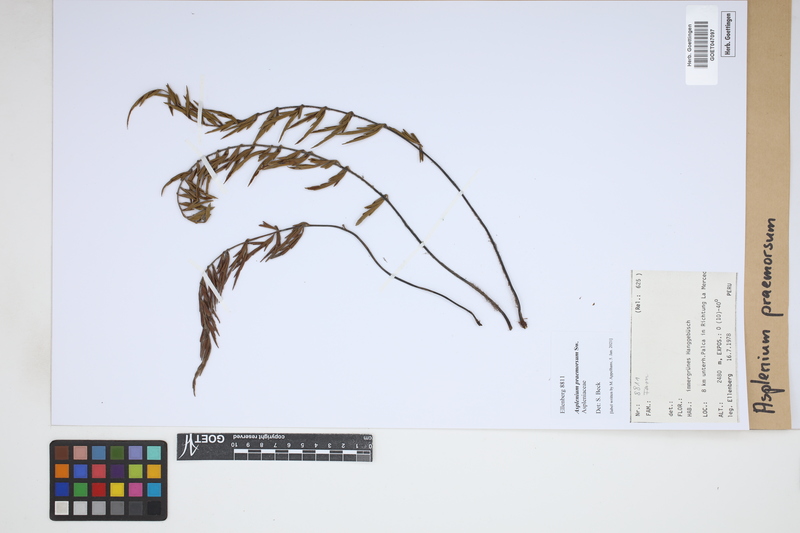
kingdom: Plantae
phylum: Tracheophyta
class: Polypodiopsida
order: Polypodiales
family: Aspleniaceae
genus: Asplenium
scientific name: Asplenium praemorsum
